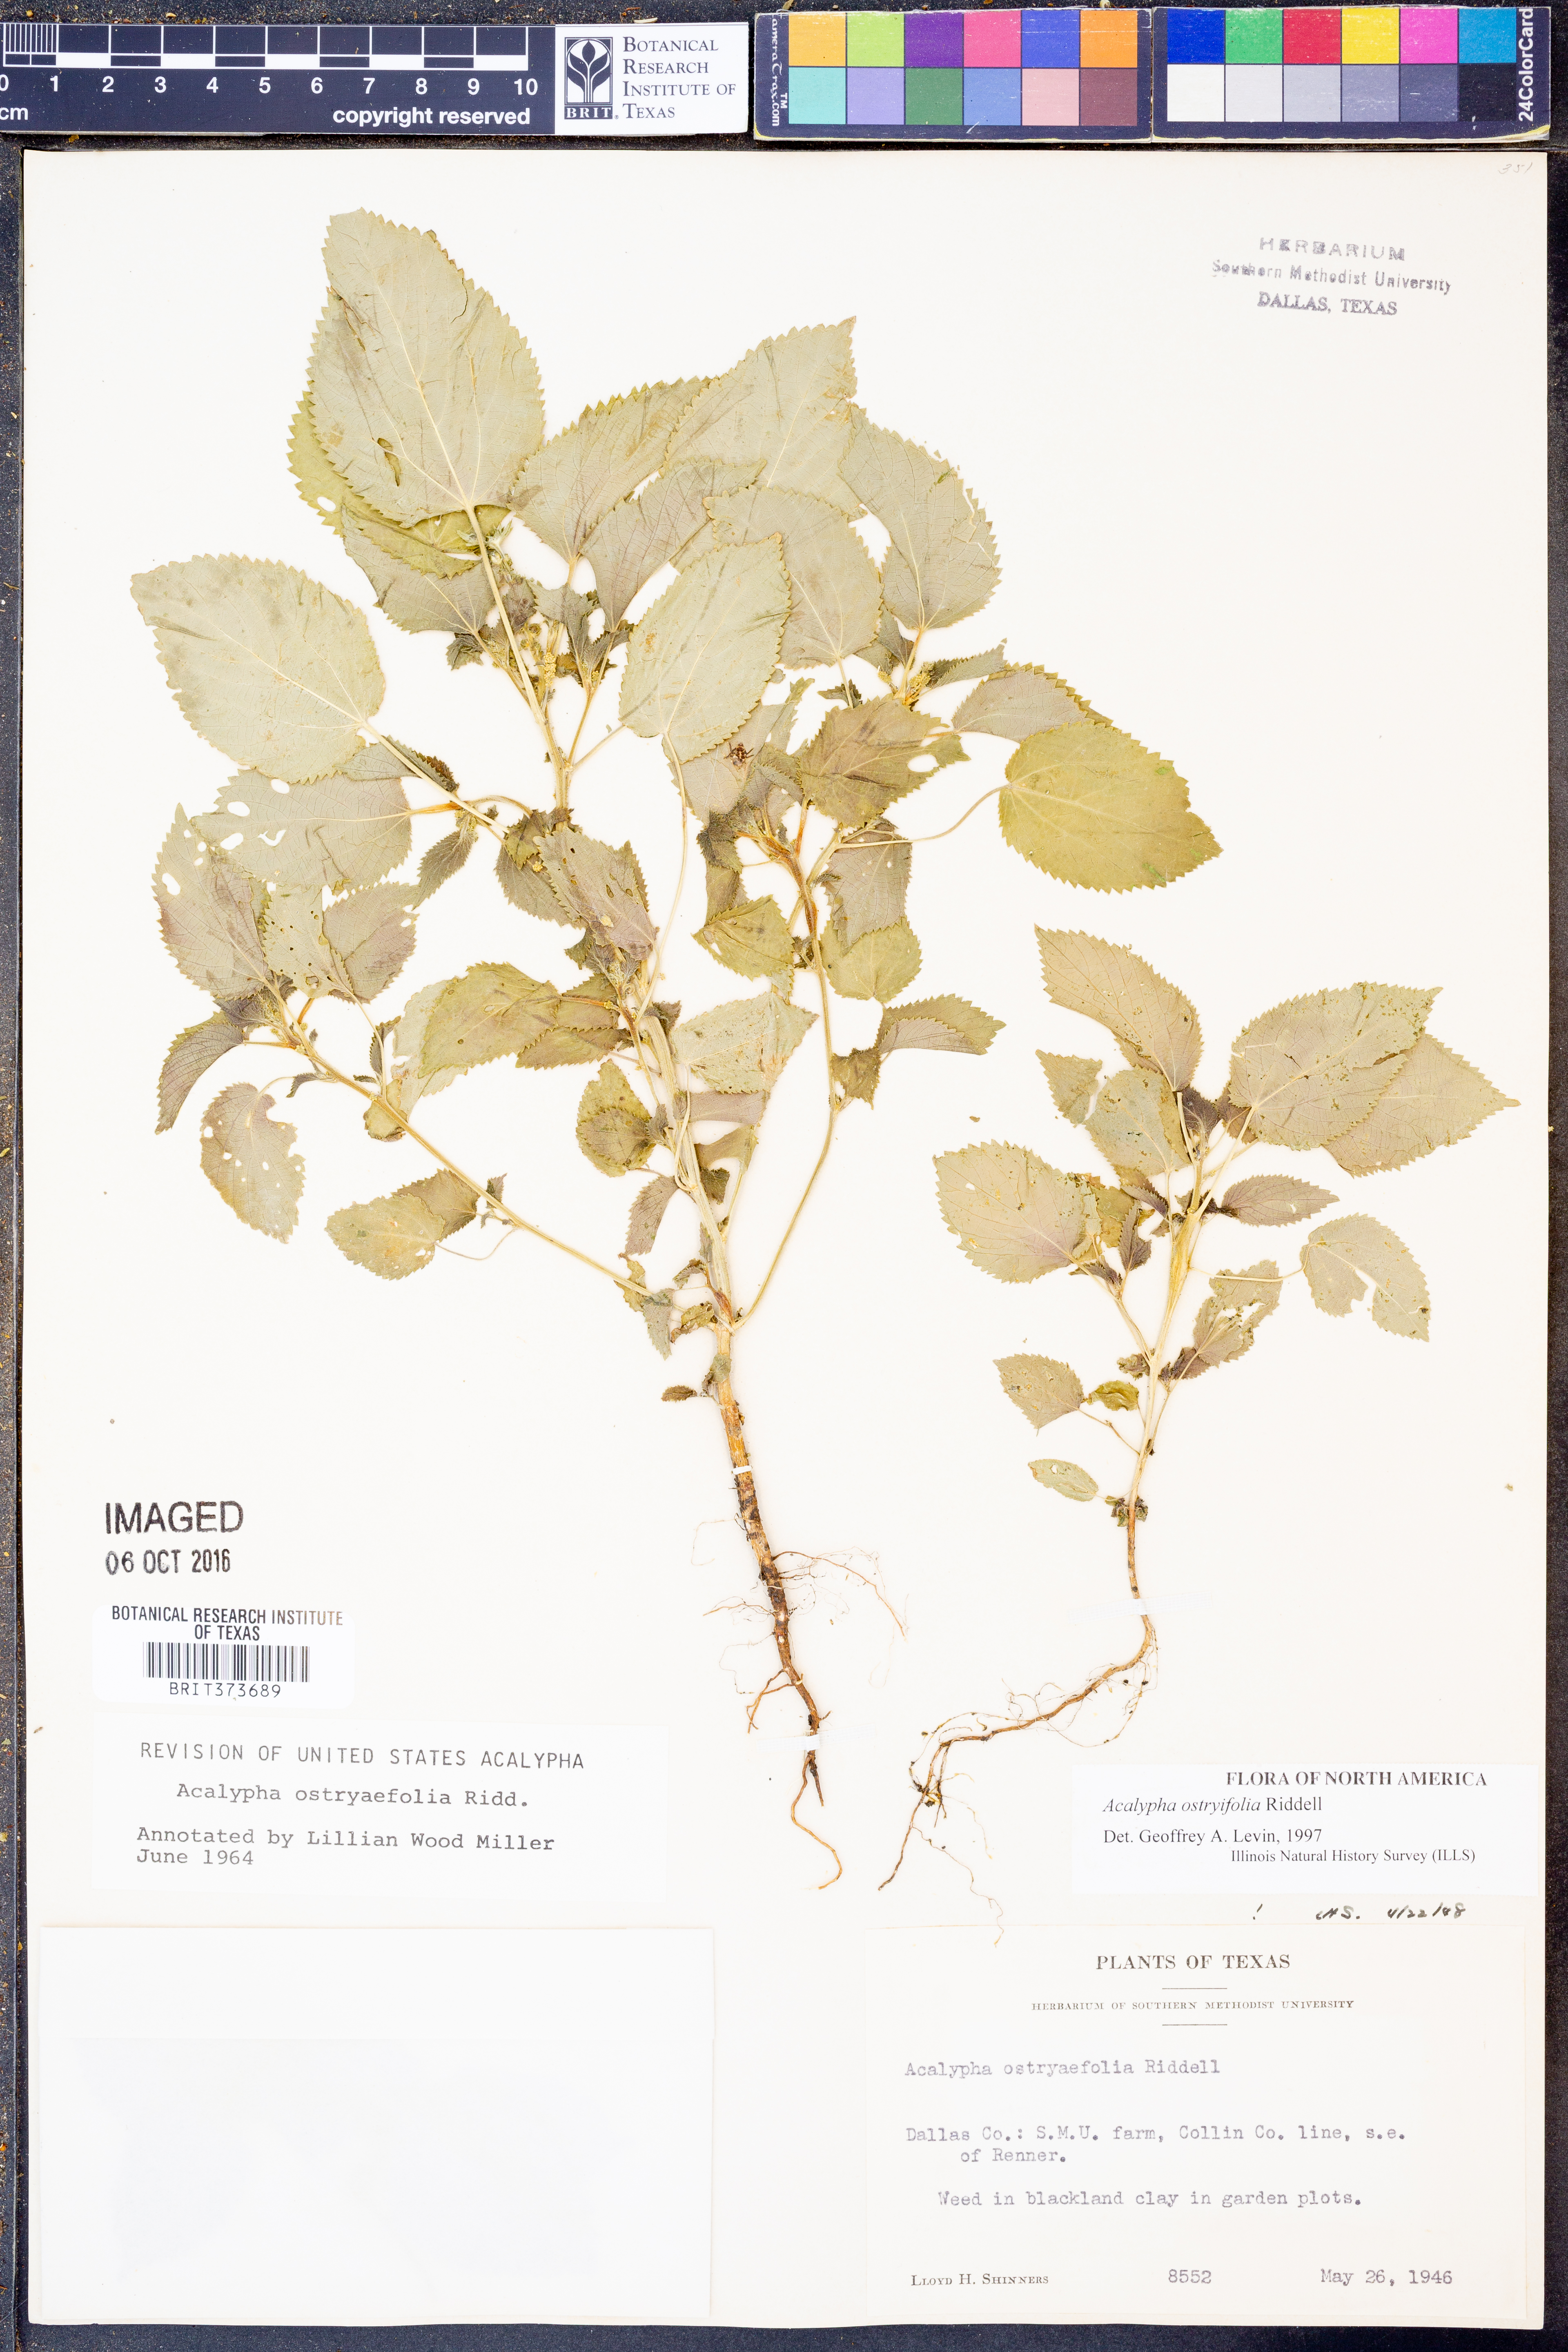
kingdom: Plantae
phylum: Tracheophyta
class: Magnoliopsida
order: Malpighiales
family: Euphorbiaceae
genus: Acalypha
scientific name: Acalypha persimilis
